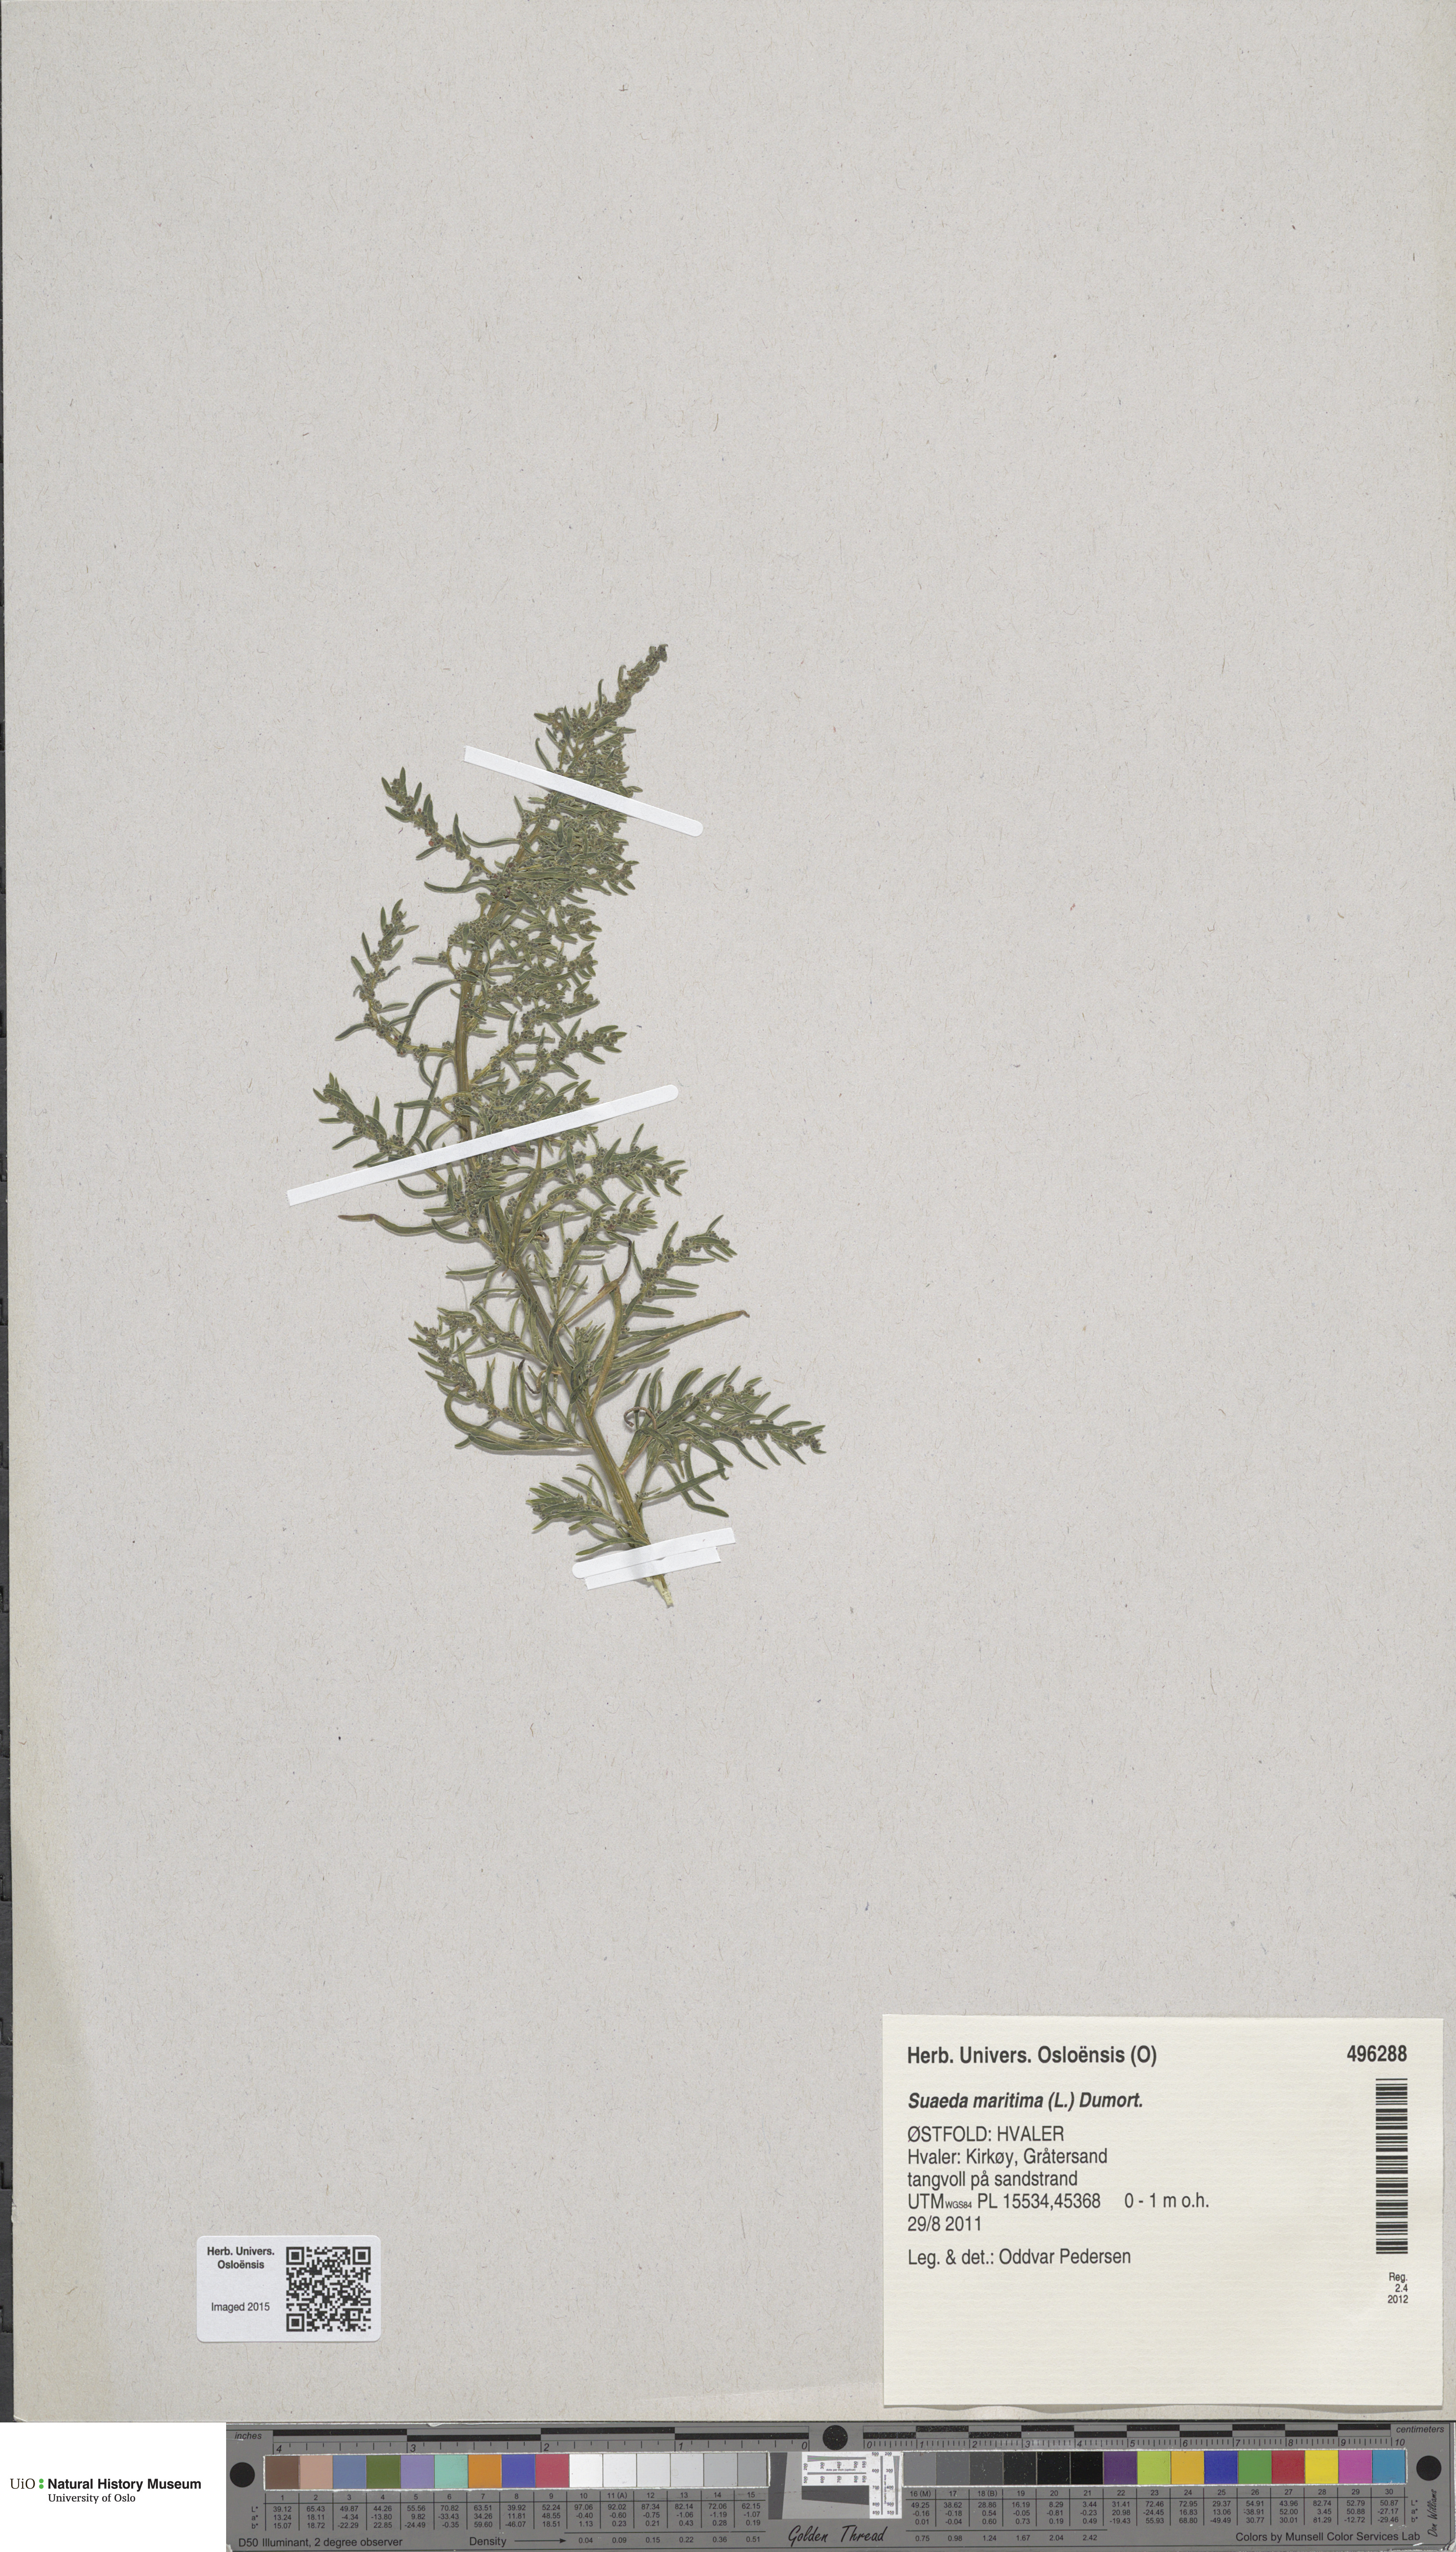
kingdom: Plantae
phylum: Tracheophyta
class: Magnoliopsida
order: Caryophyllales
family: Amaranthaceae
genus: Suaeda
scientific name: Suaeda maritima
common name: Annual sea-blite
